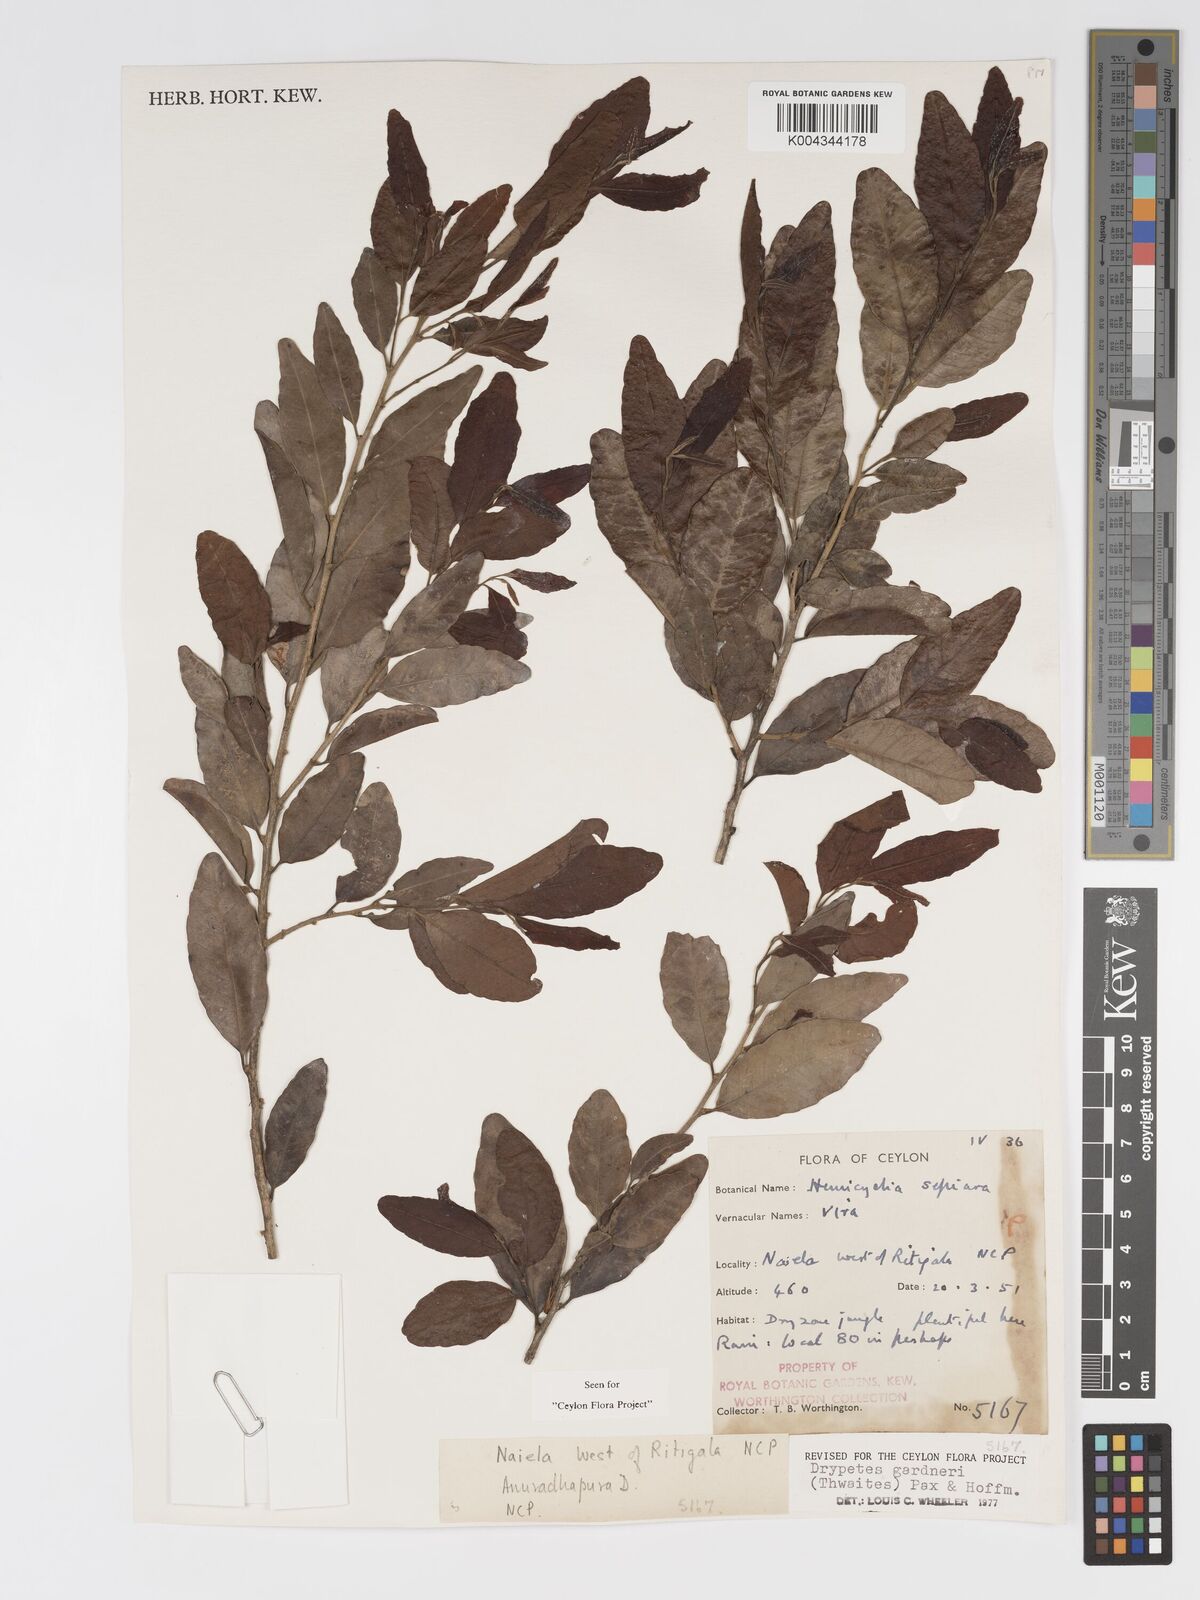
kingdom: Plantae
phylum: Tracheophyta
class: Magnoliopsida
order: Malpighiales
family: Putranjivaceae
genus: Drypetes
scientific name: Drypetes gardneri
